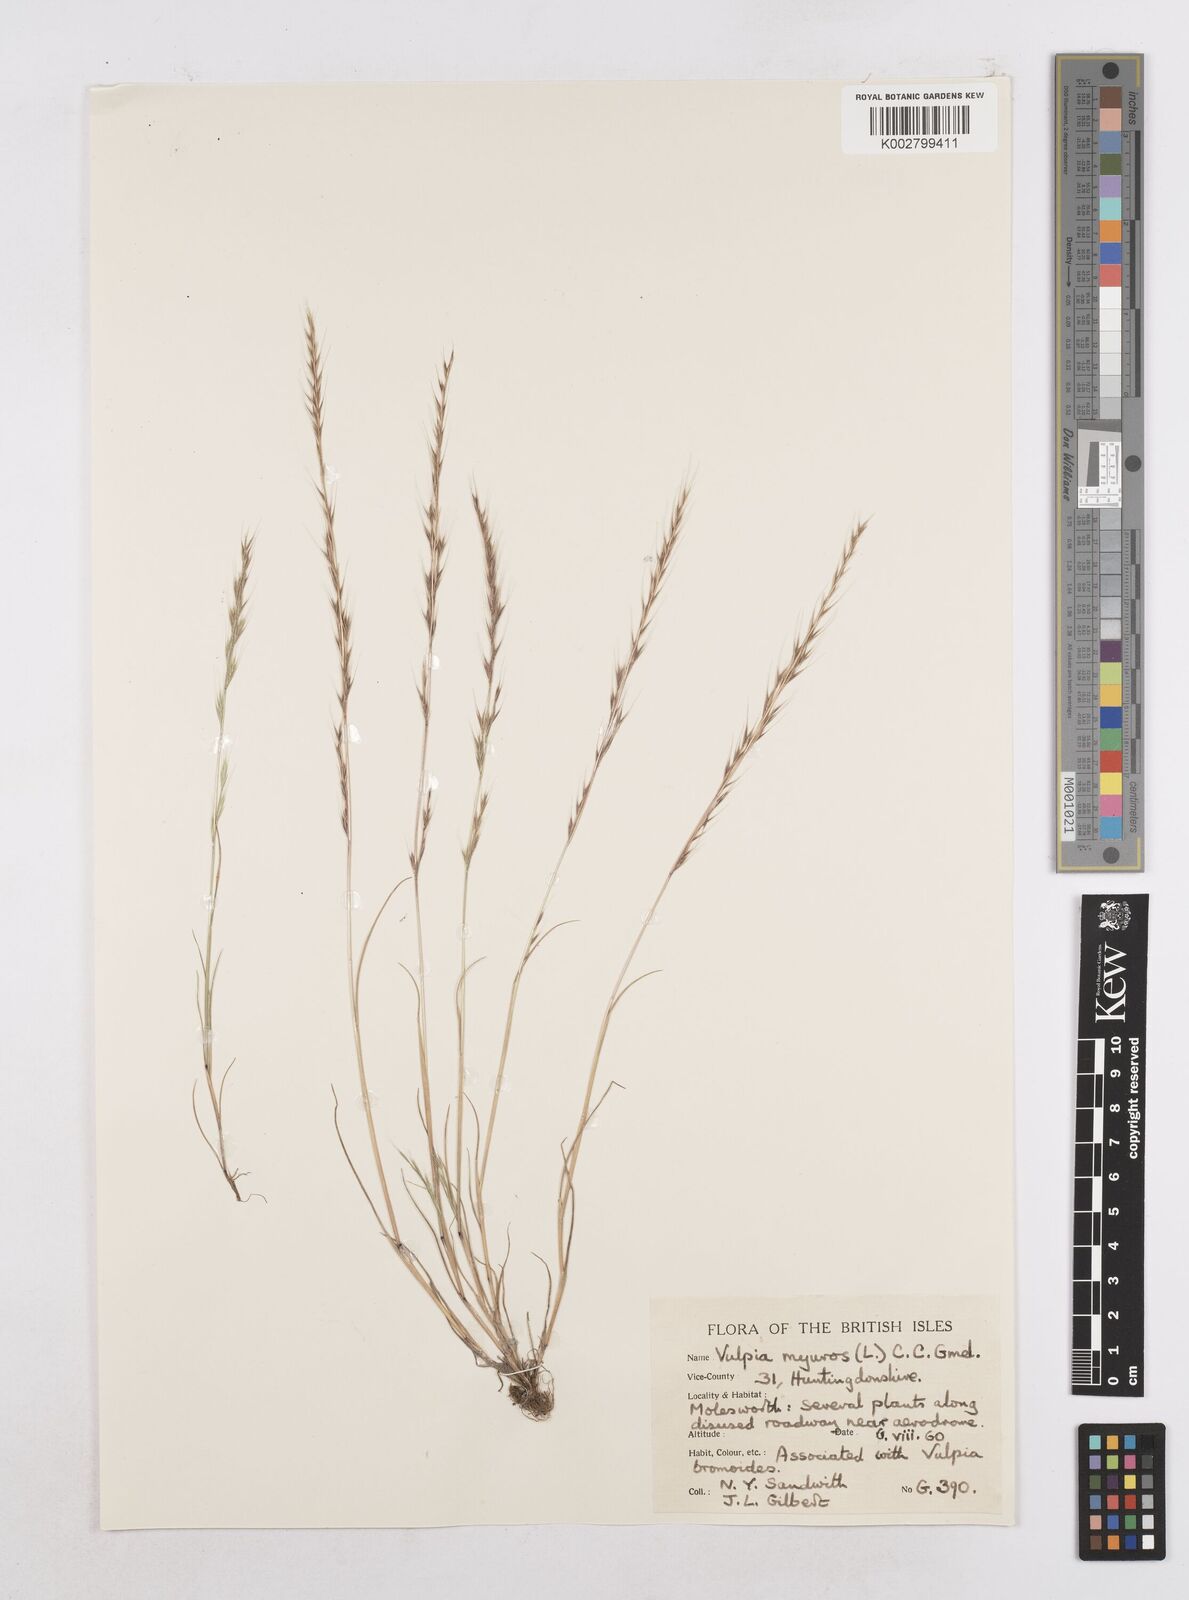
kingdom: Plantae
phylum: Tracheophyta
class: Liliopsida
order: Poales
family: Poaceae
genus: Festuca
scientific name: Festuca myuros
